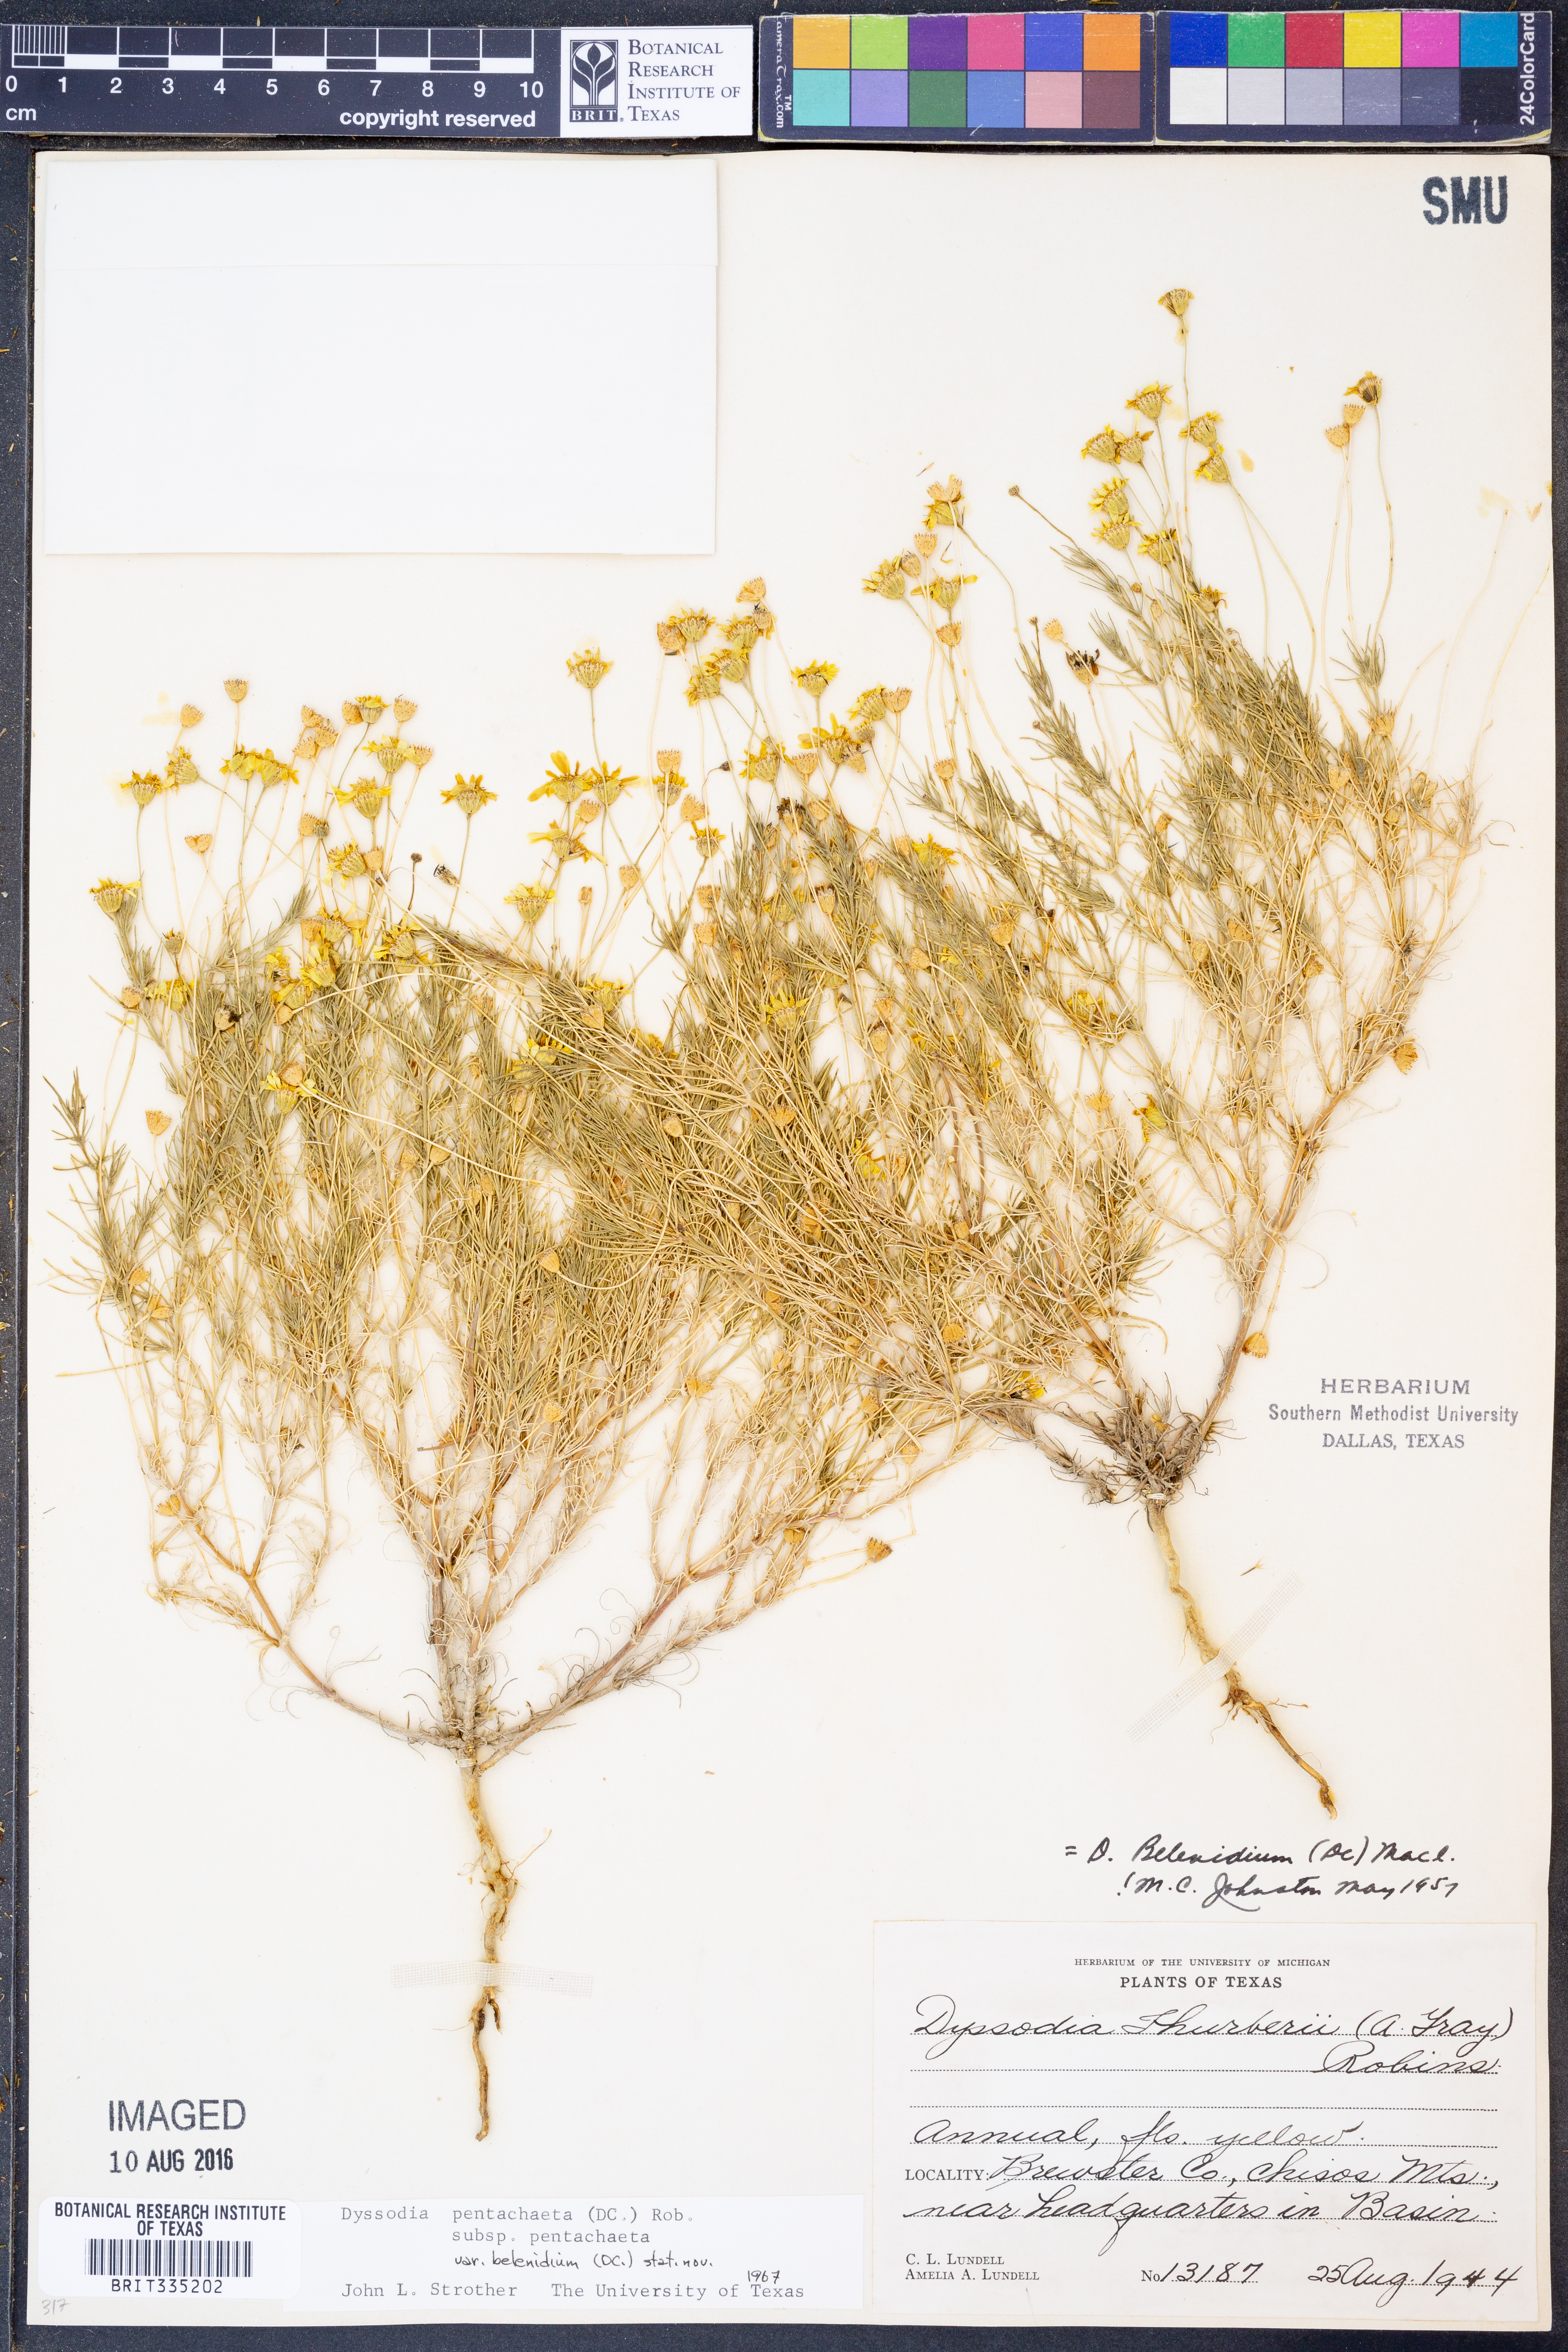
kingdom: Plantae
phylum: Tracheophyta
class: Magnoliopsida
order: Asterales
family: Asteraceae
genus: Thymophylla
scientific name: Thymophylla pentachaeta
